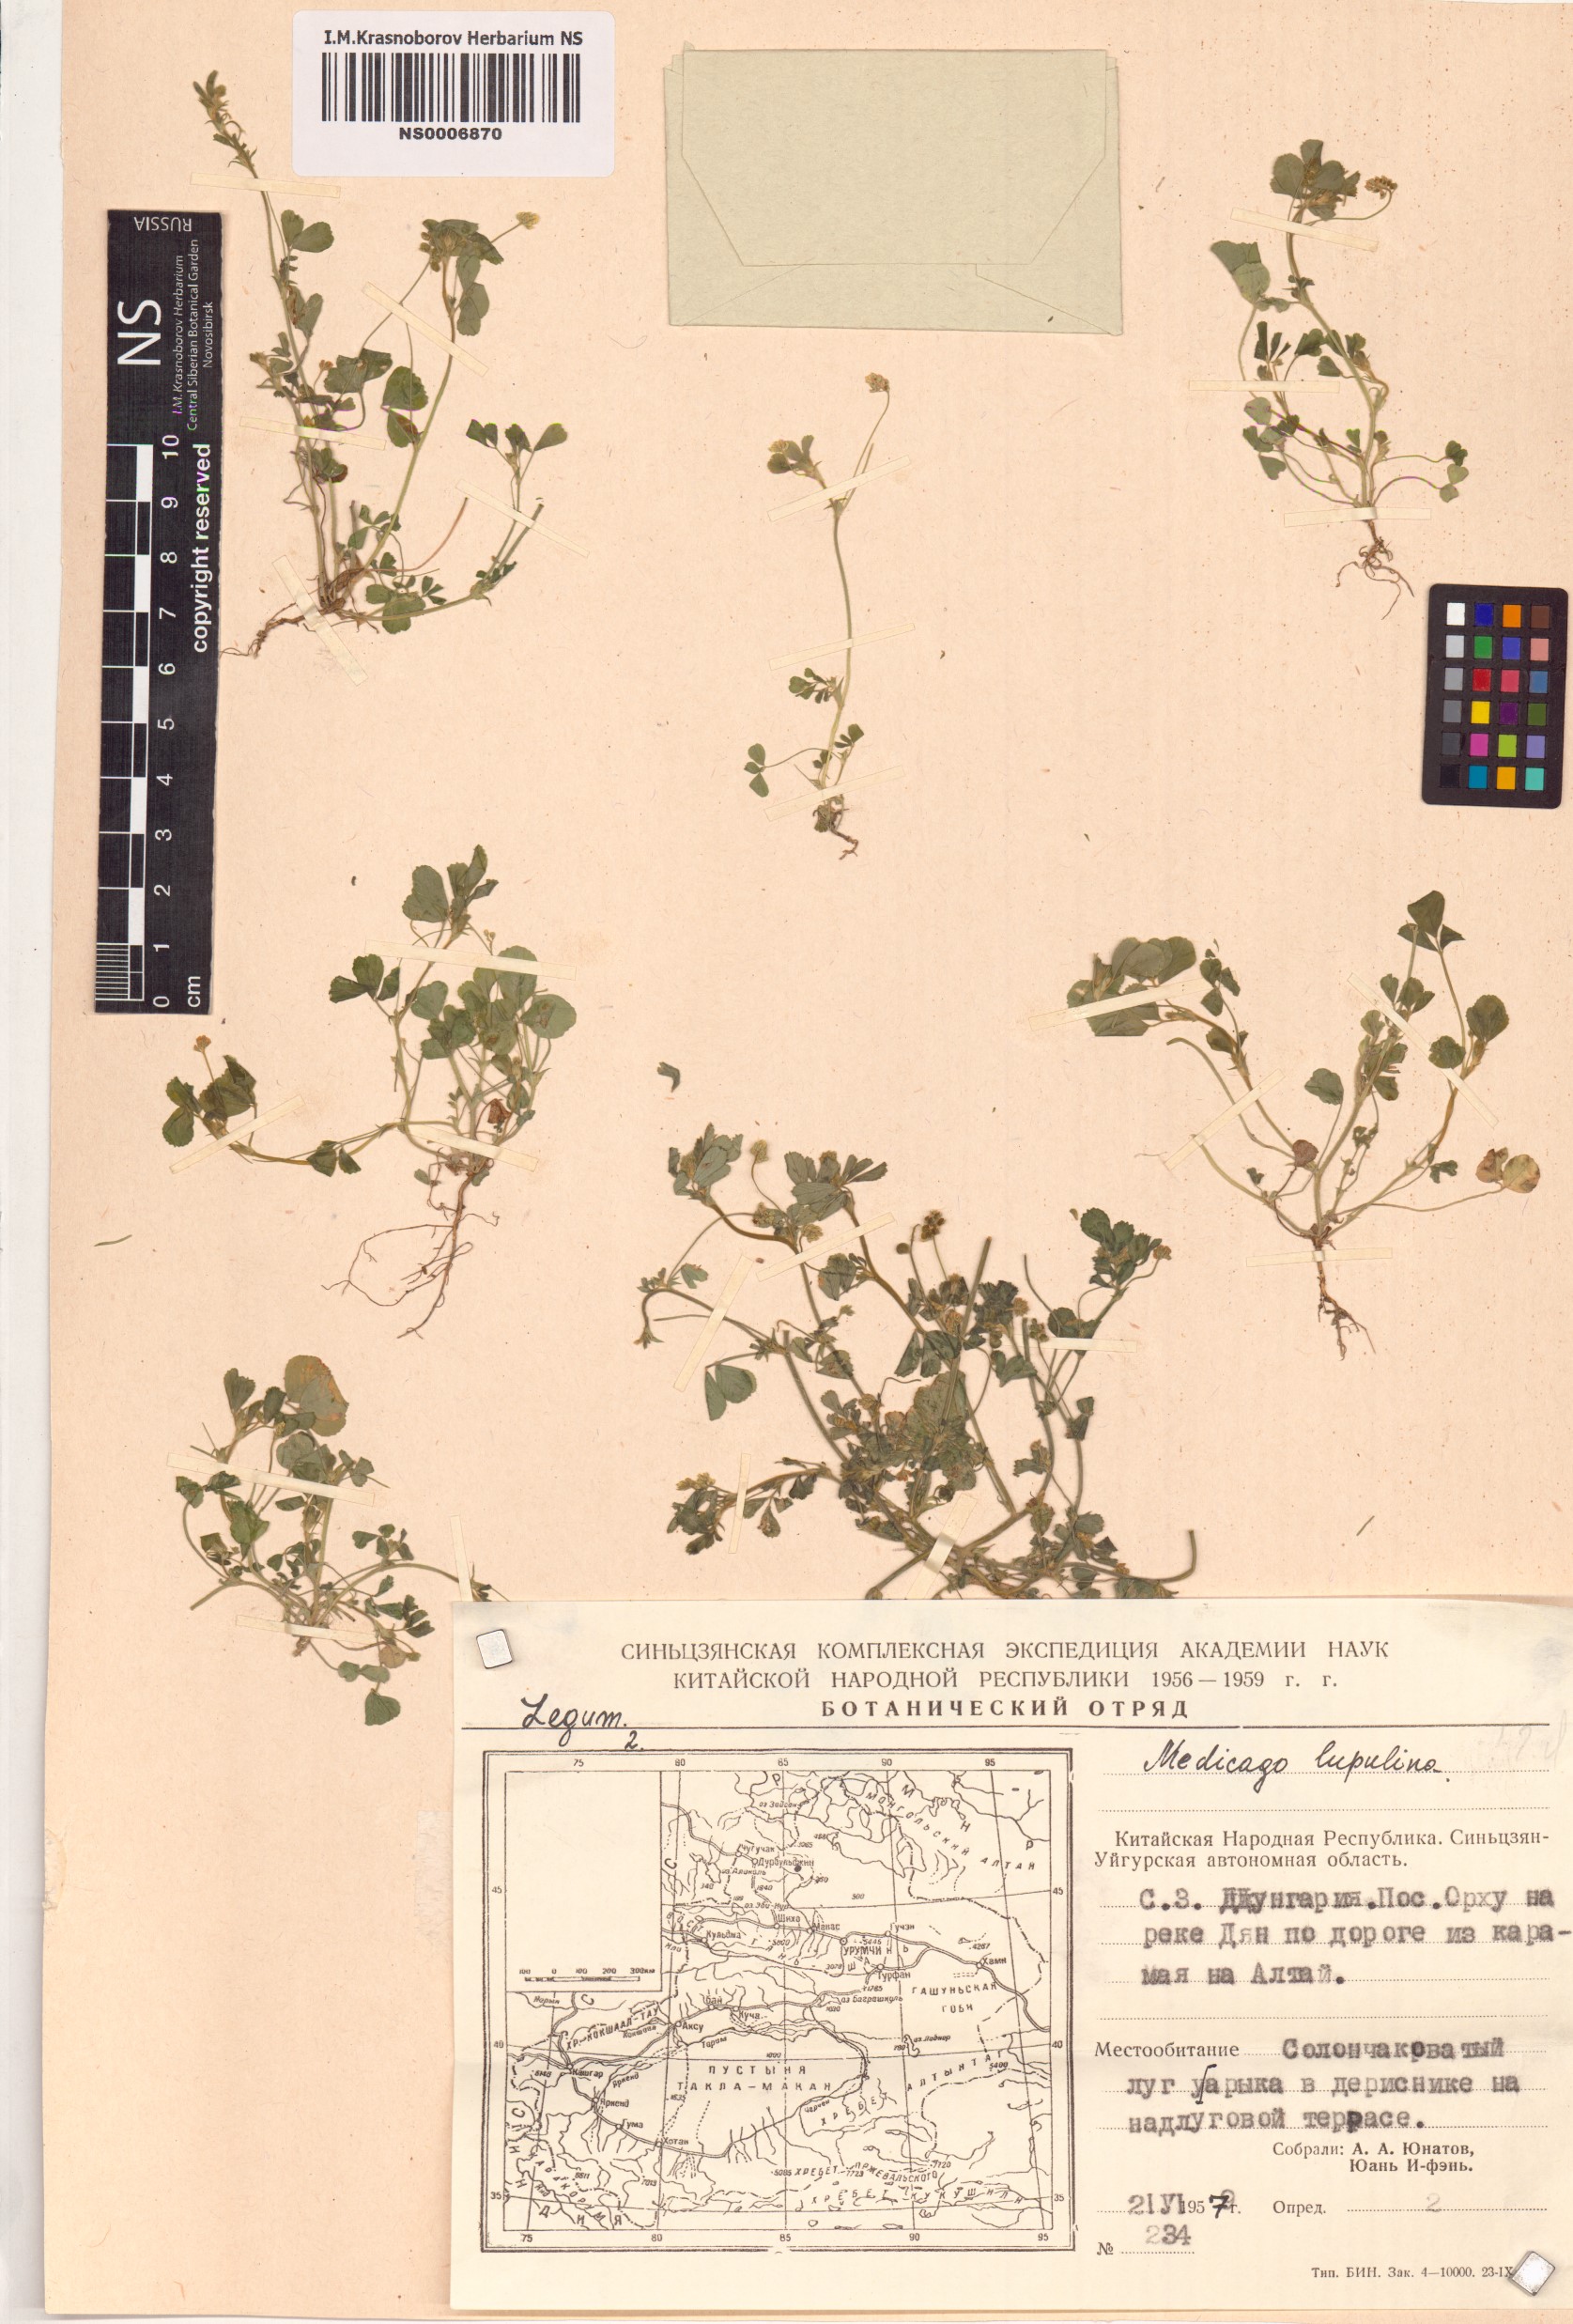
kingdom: Plantae
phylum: Tracheophyta
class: Magnoliopsida
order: Fabales
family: Fabaceae
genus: Medicago
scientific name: Medicago lupulina
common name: Black medick
